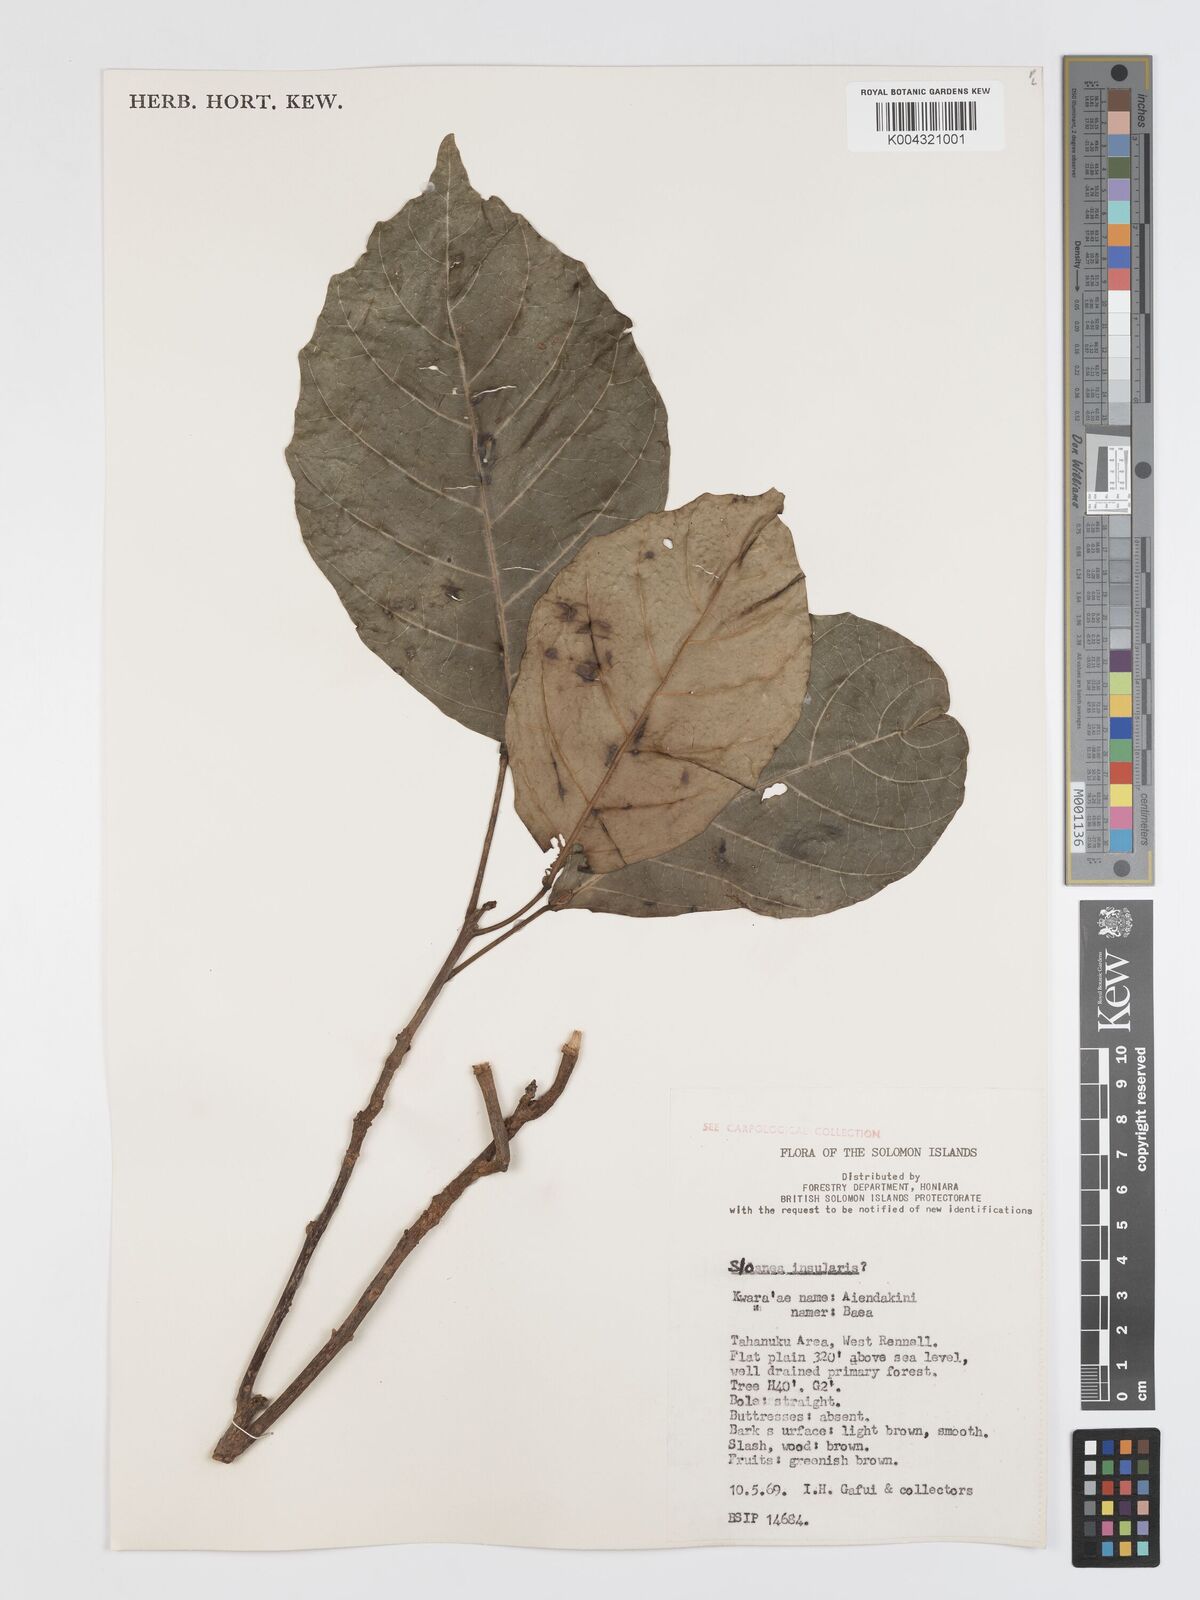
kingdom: Plantae
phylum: Tracheophyta
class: Magnoliopsida
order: Oxalidales
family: Elaeocarpaceae
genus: Sloanea
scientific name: Sloanea insularis
